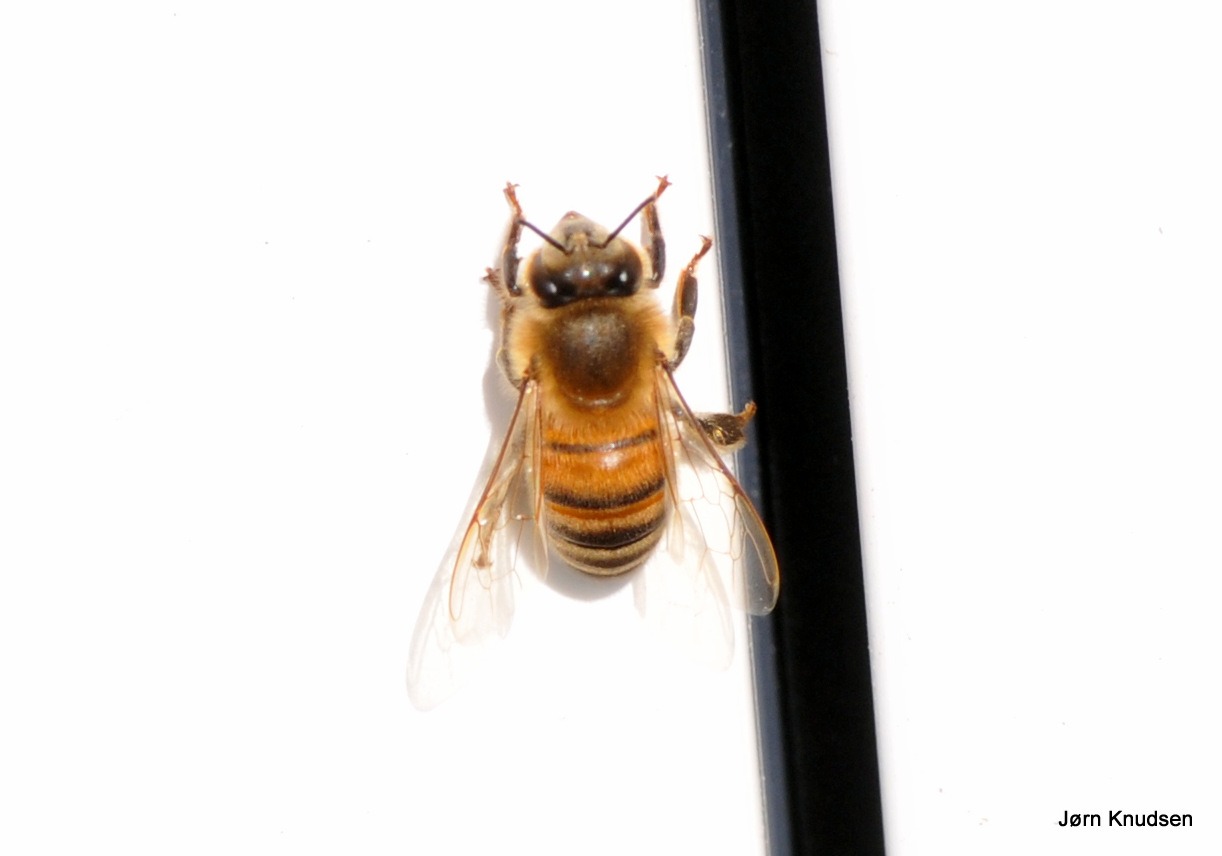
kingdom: Animalia
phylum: Arthropoda
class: Insecta
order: Hymenoptera
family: Apidae
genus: Apis
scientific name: Apis mellifera
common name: Honningbi
